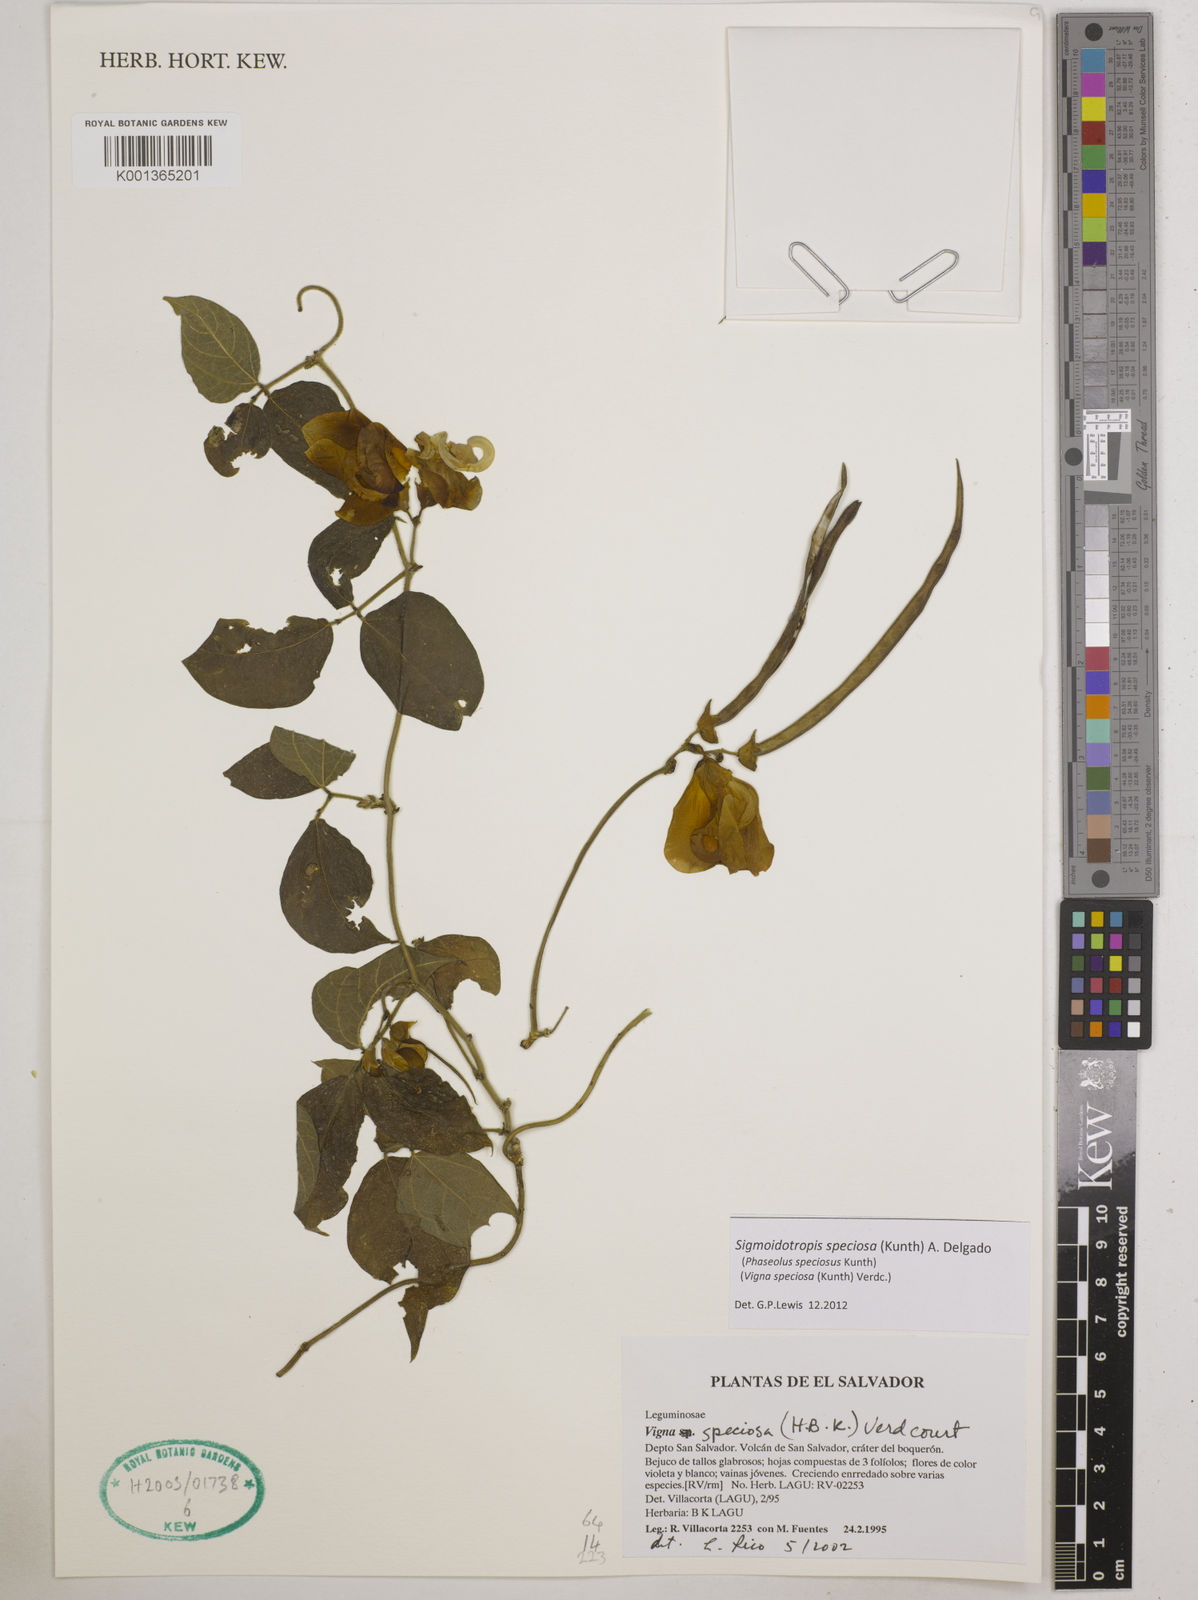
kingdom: Plantae
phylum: Tracheophyta
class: Magnoliopsida
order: Fabales
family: Fabaceae
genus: Sigmoidotropis
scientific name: Sigmoidotropis speciosa
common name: Snail flower
